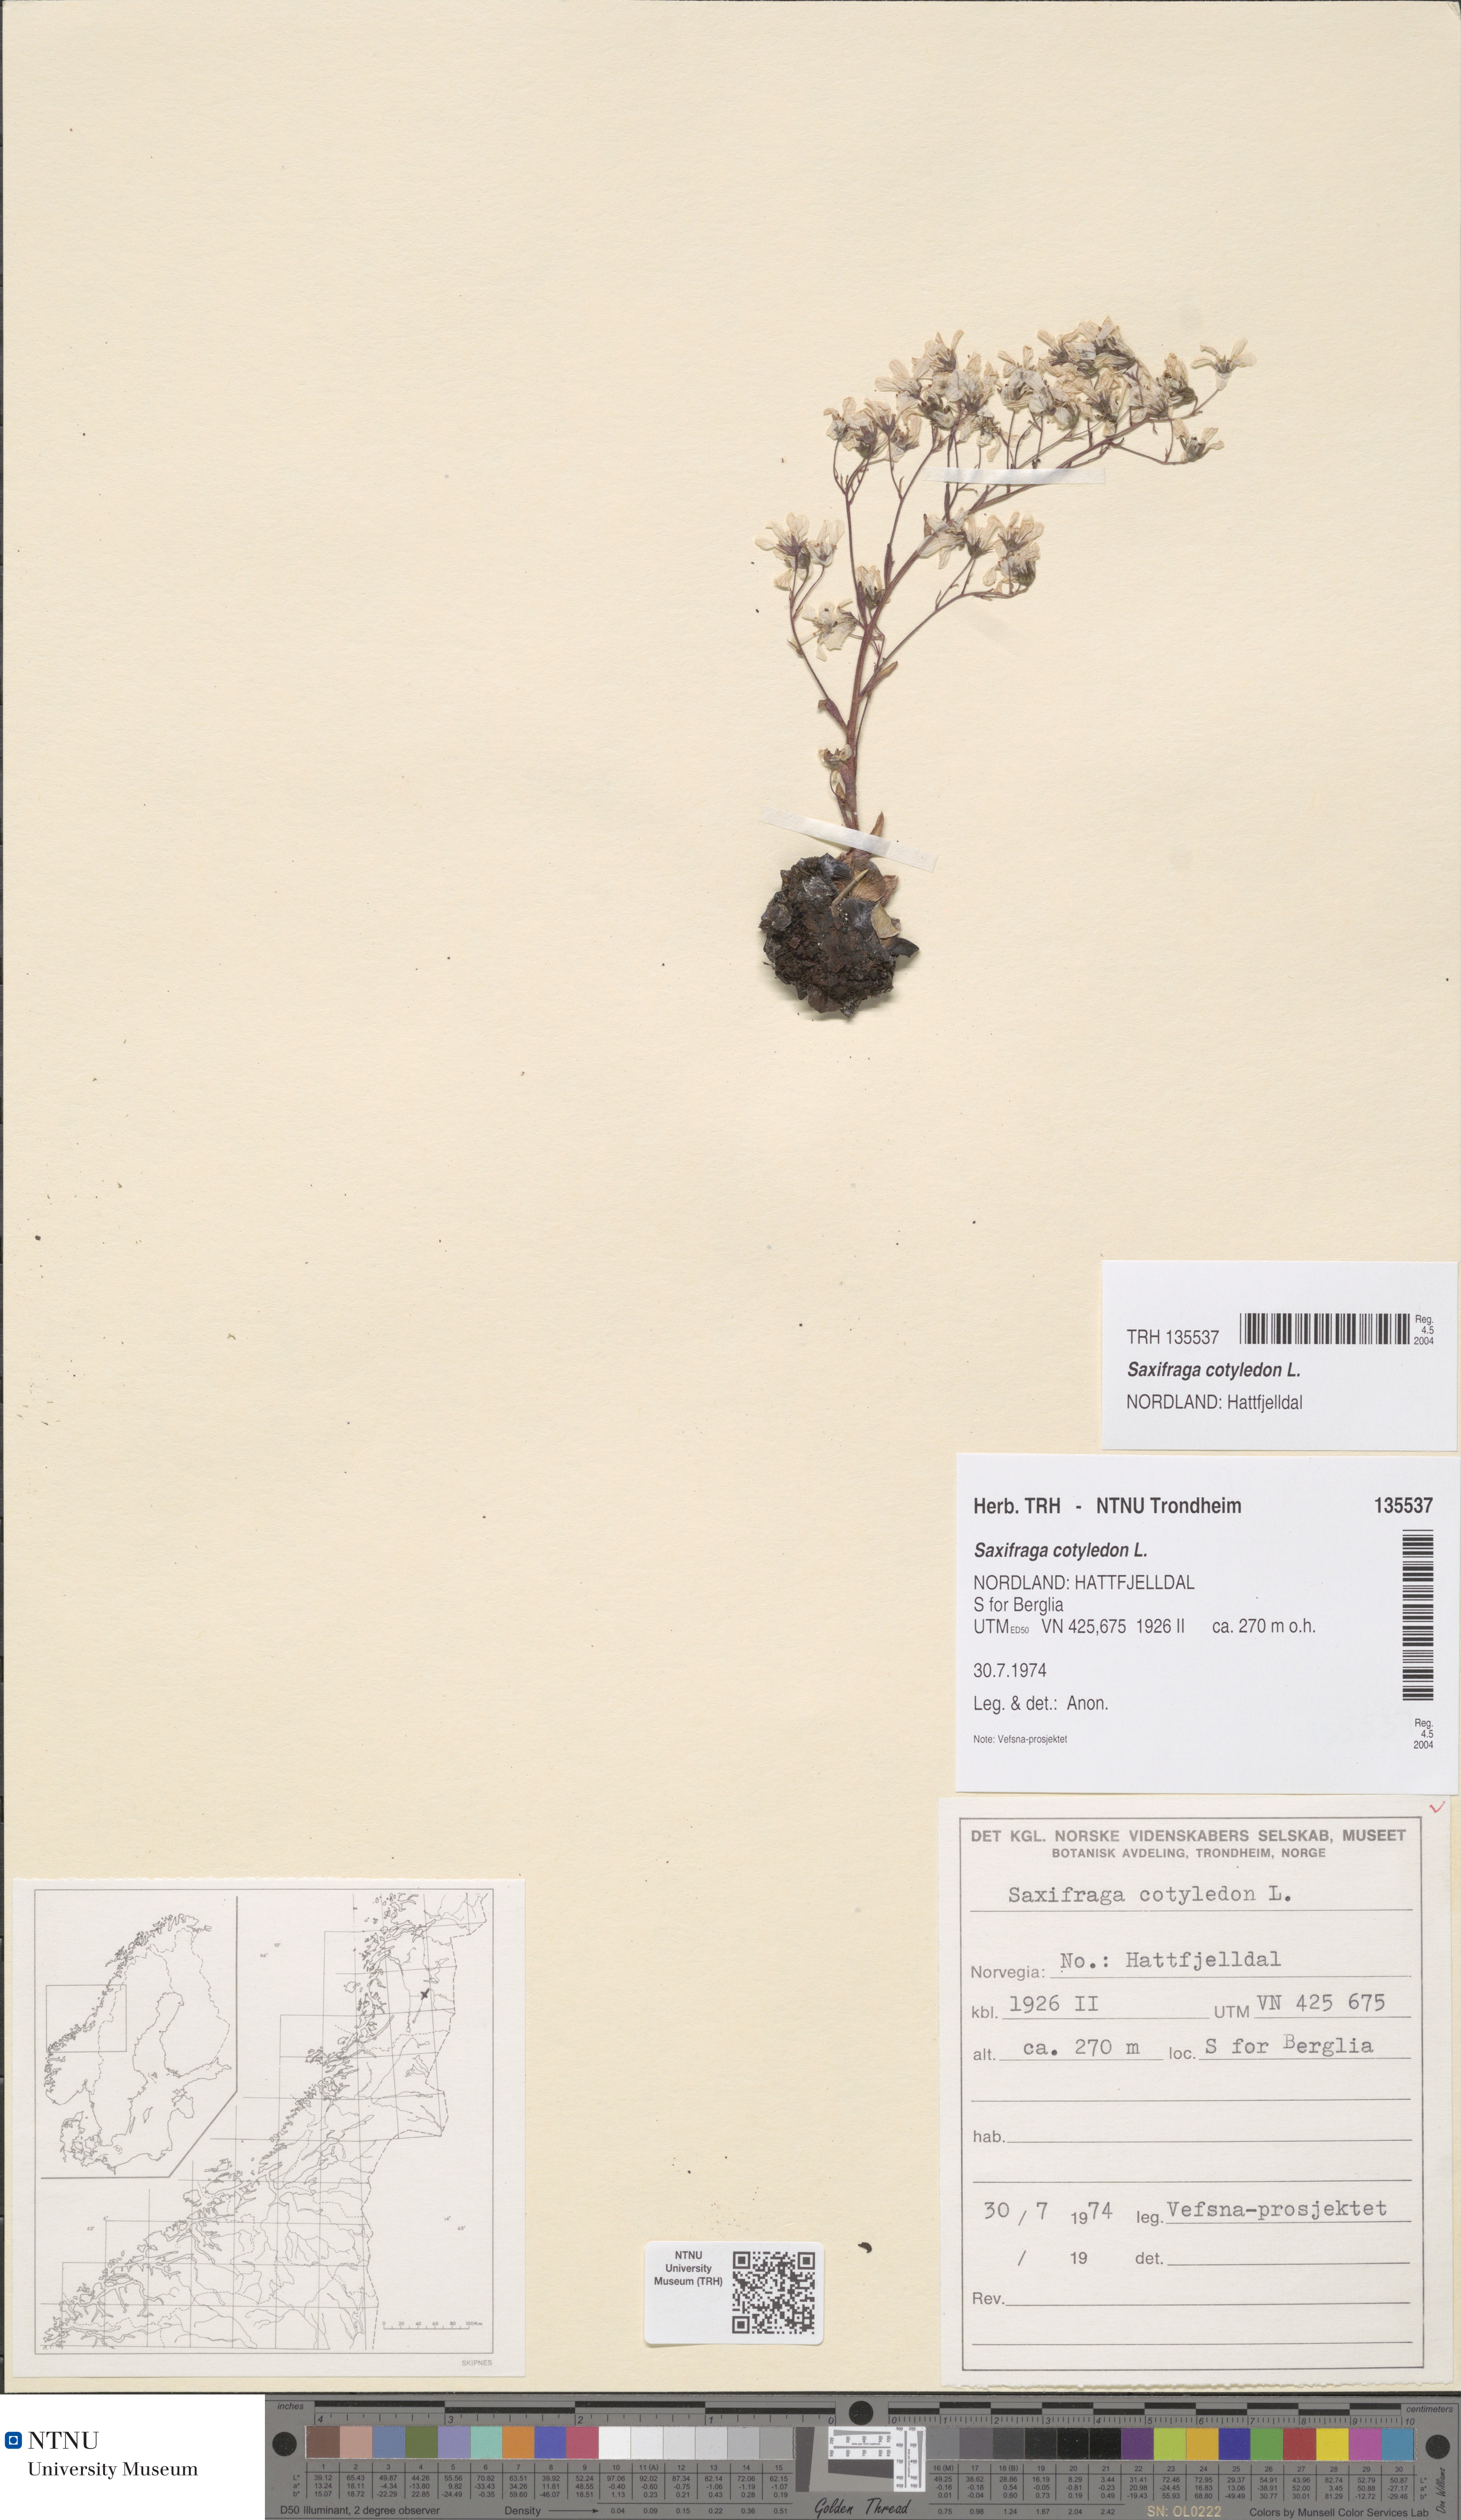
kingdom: Plantae
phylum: Tracheophyta
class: Magnoliopsida
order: Saxifragales
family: Saxifragaceae
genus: Saxifraga
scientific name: Saxifraga cotyledon
